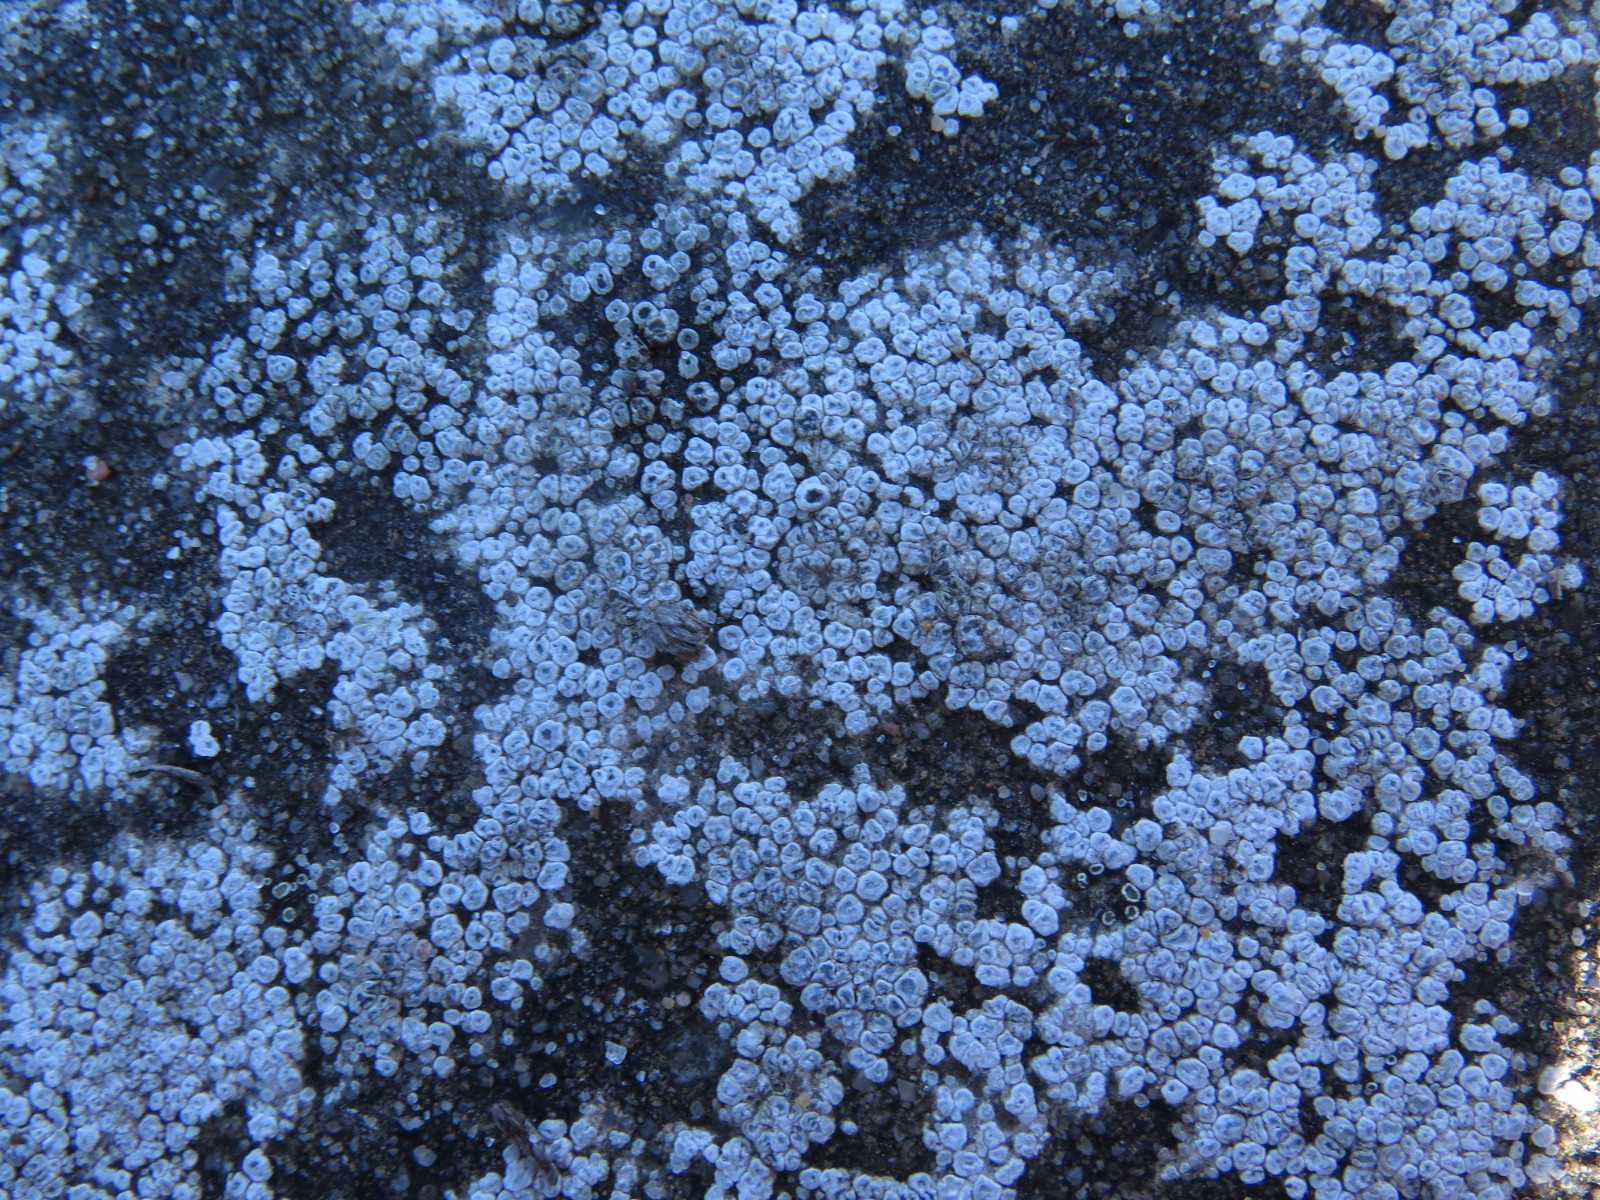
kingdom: Fungi
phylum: Ascomycota
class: Lecanoromycetes
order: Pertusariales
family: Megasporaceae
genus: Circinaria
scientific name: Circinaria contorta
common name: indviklet hulskivelav
